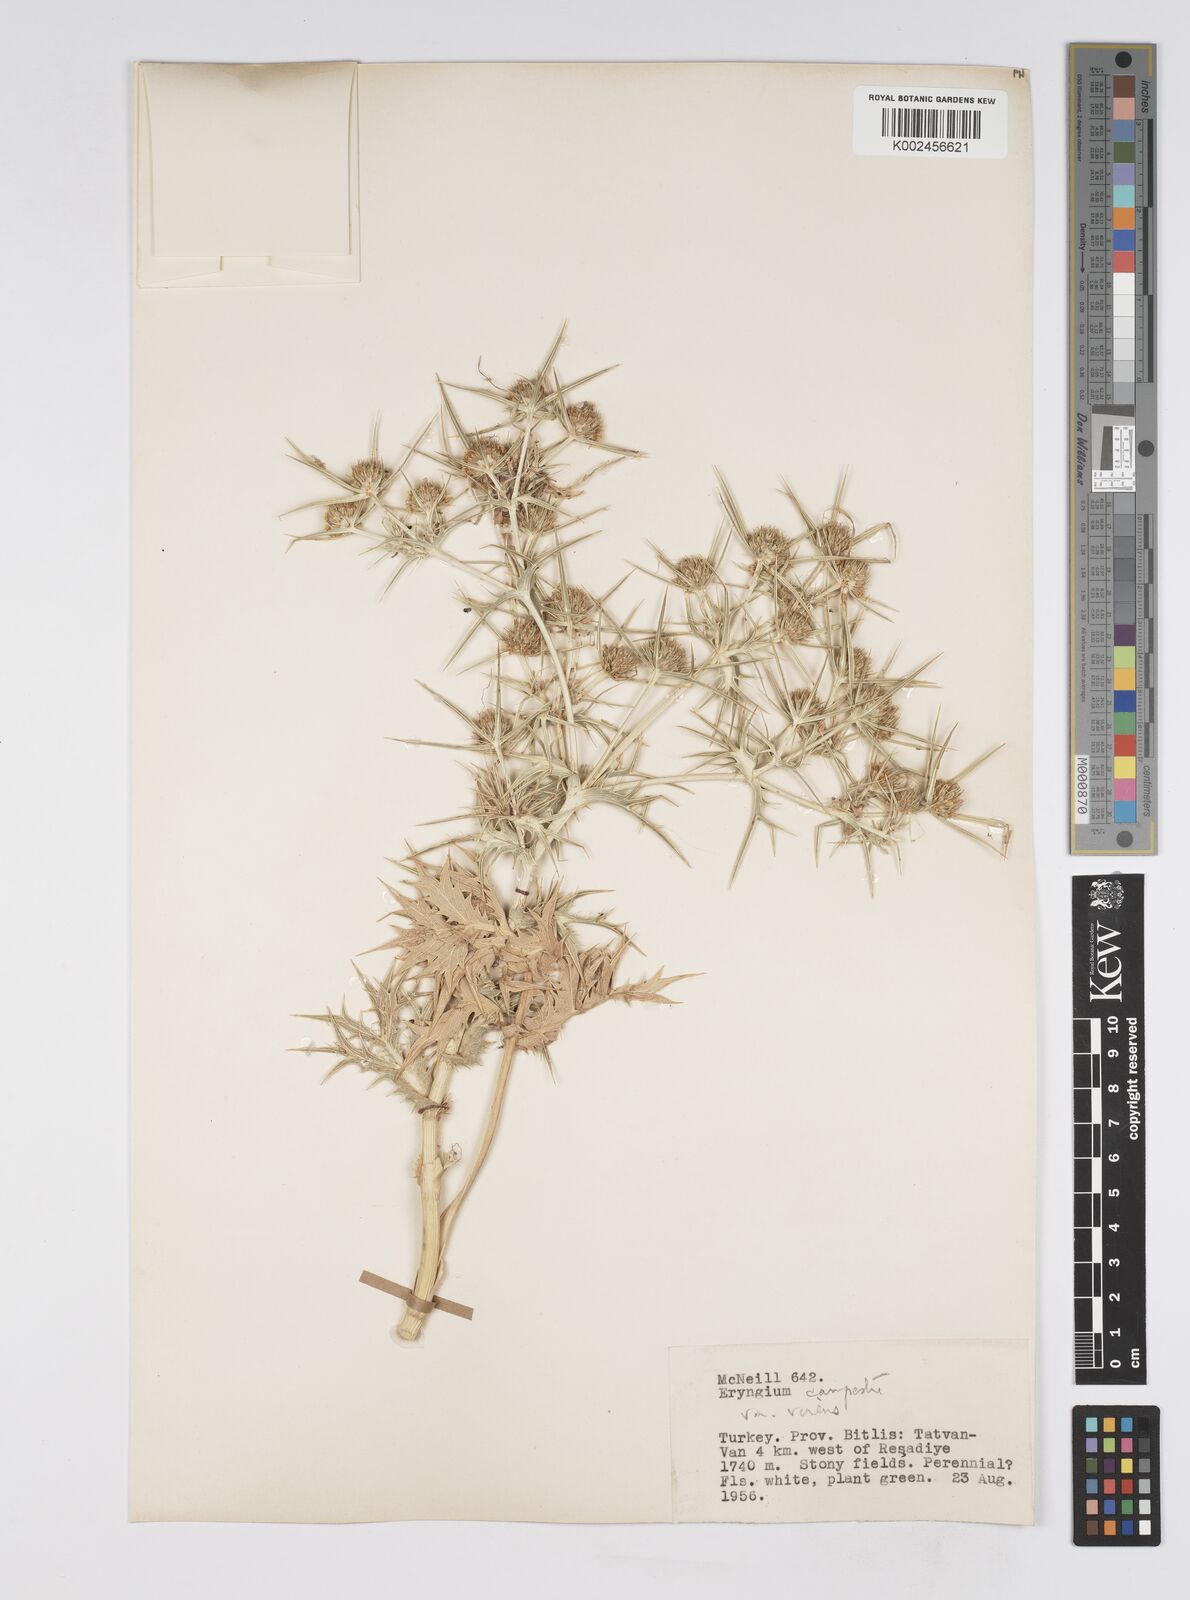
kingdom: Plantae
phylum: Tracheophyta
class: Magnoliopsida
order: Apiales
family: Apiaceae
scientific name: Apiaceae
